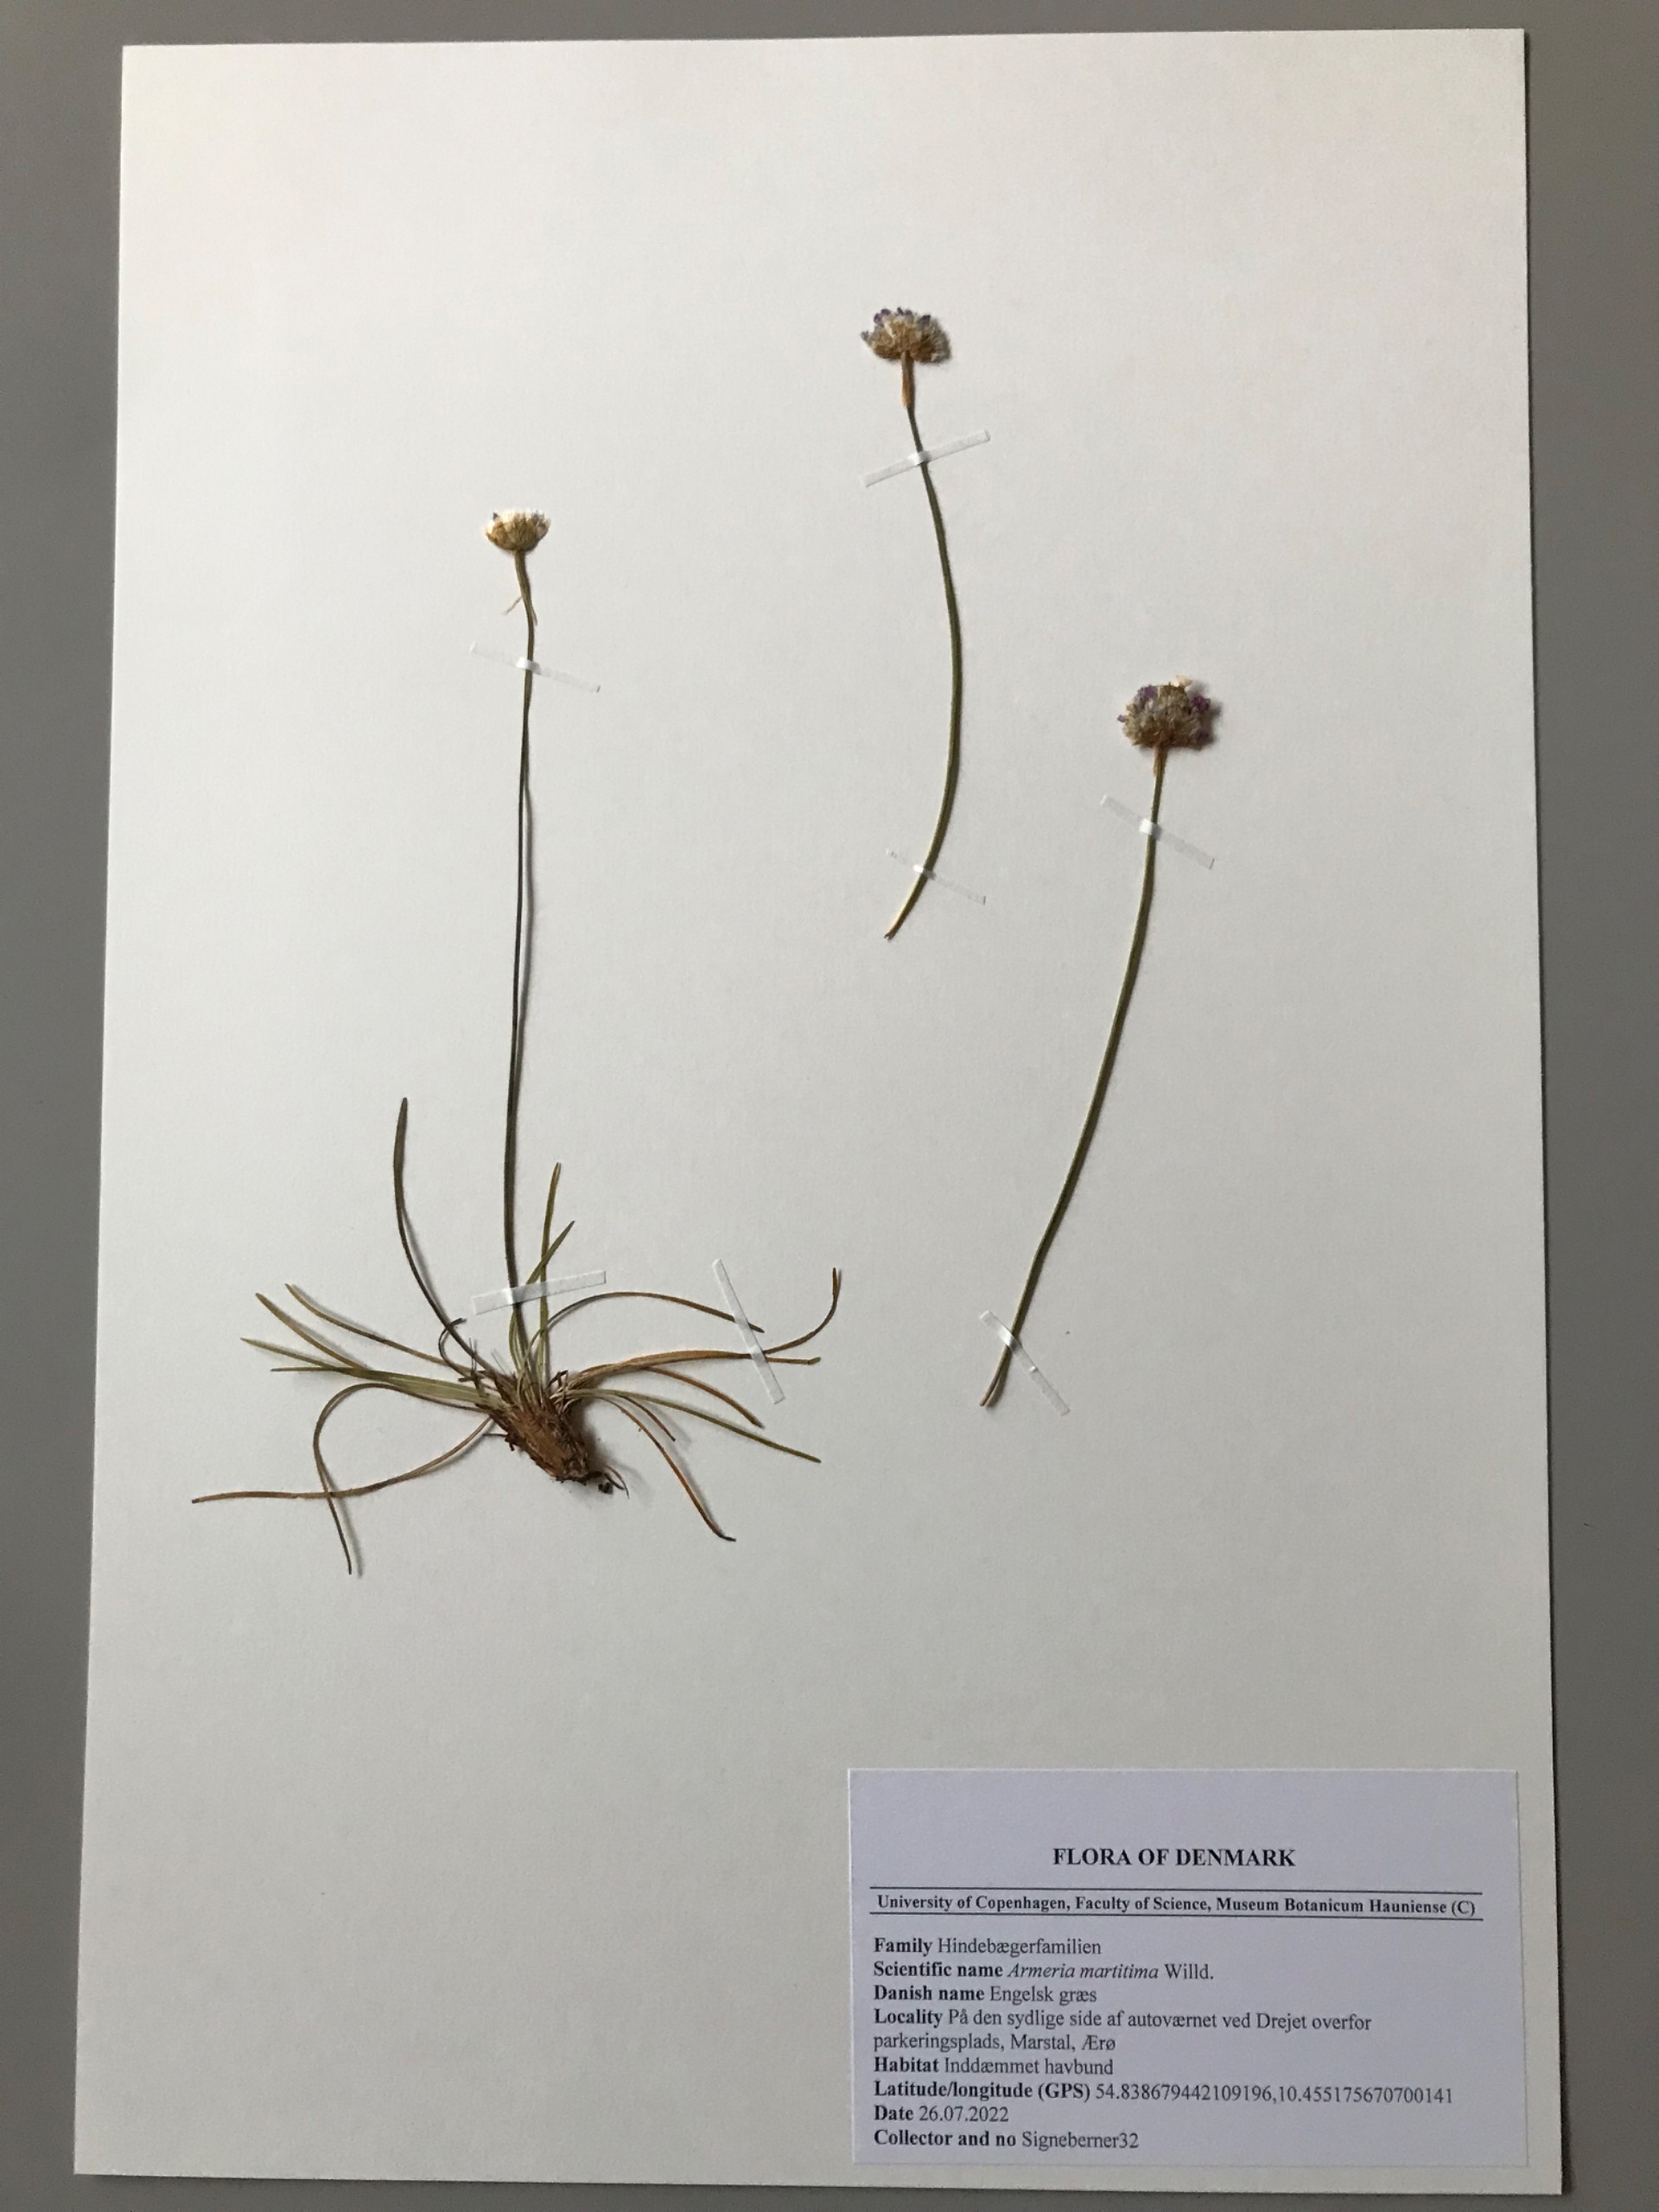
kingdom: Plantae
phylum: Tracheophyta
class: Magnoliopsida
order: Caryophyllales
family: Plumbaginaceae
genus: Armeria
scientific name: Armeria maritima
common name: Engelskgræs
